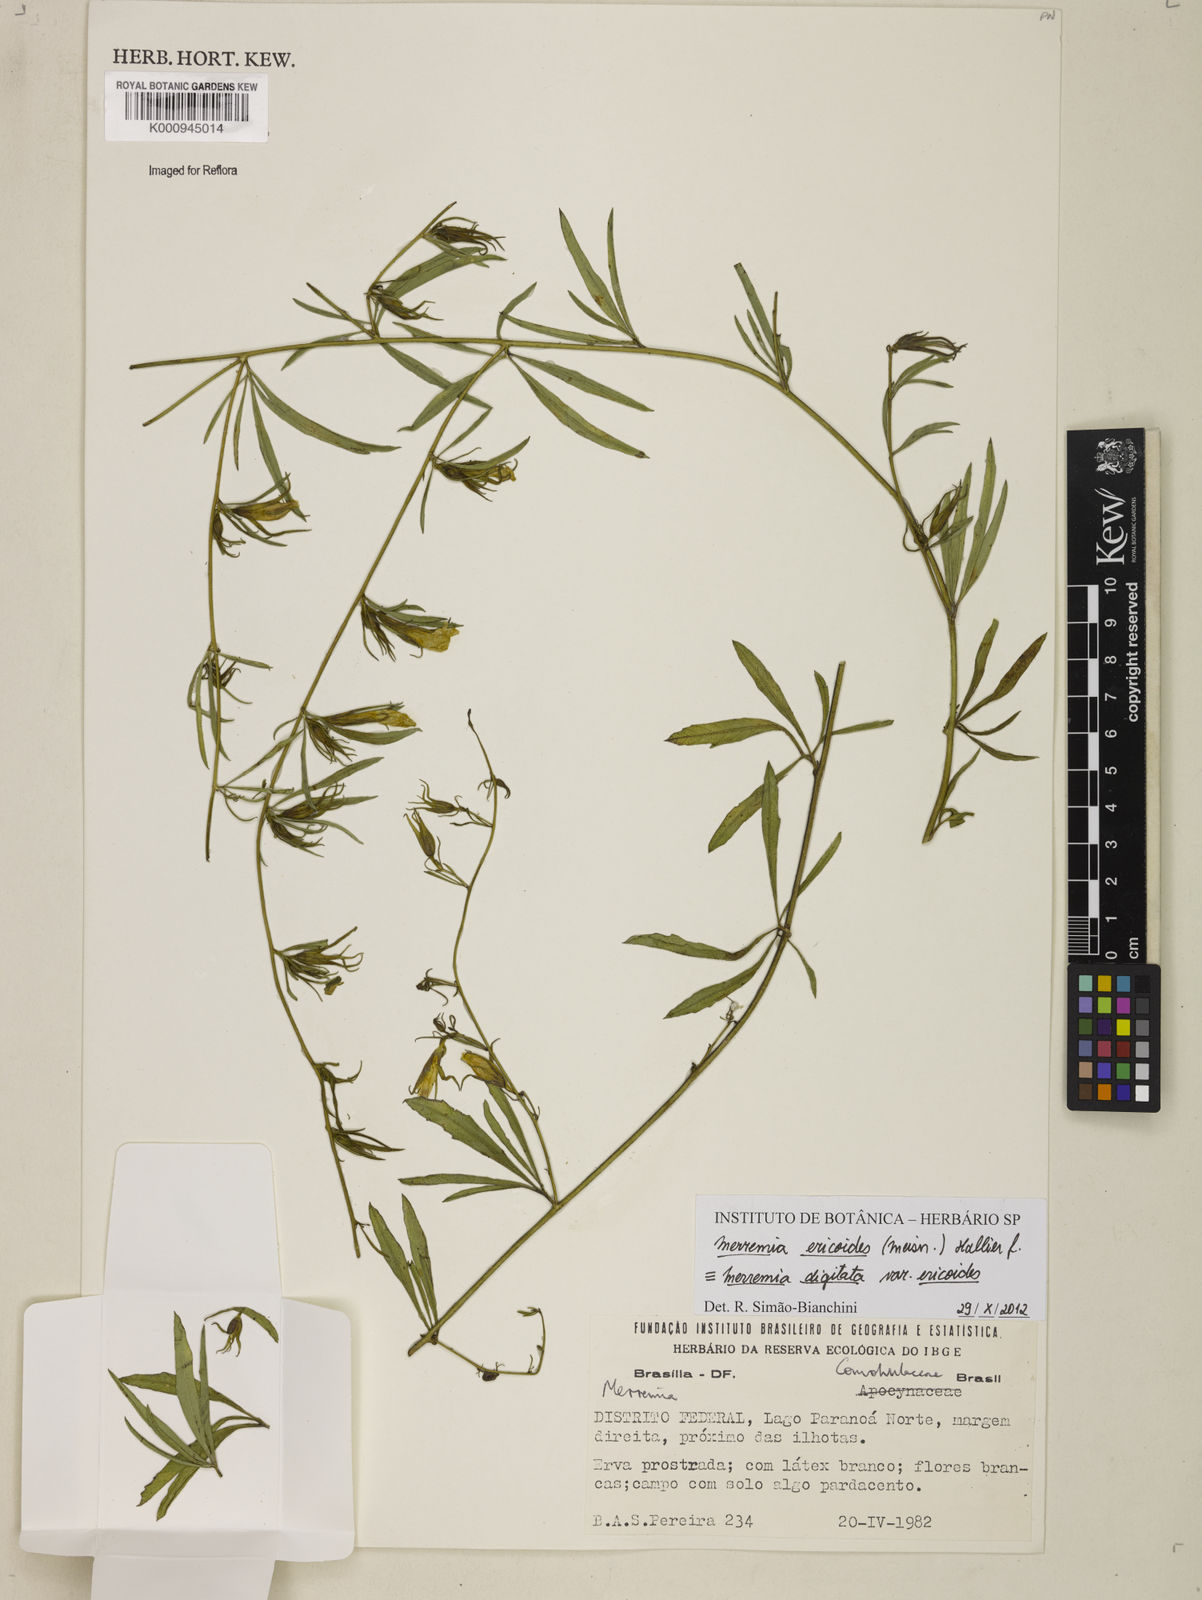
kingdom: Plantae
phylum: Tracheophyta
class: Magnoliopsida
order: Solanales
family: Convolvulaceae
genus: Distimake
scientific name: Distimake ericoides
